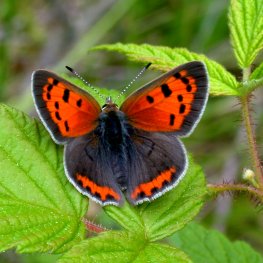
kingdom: Animalia
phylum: Arthropoda
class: Insecta
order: Lepidoptera
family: Lycaenidae
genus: Lycaena
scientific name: Lycaena phlaeas
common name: American Copper
